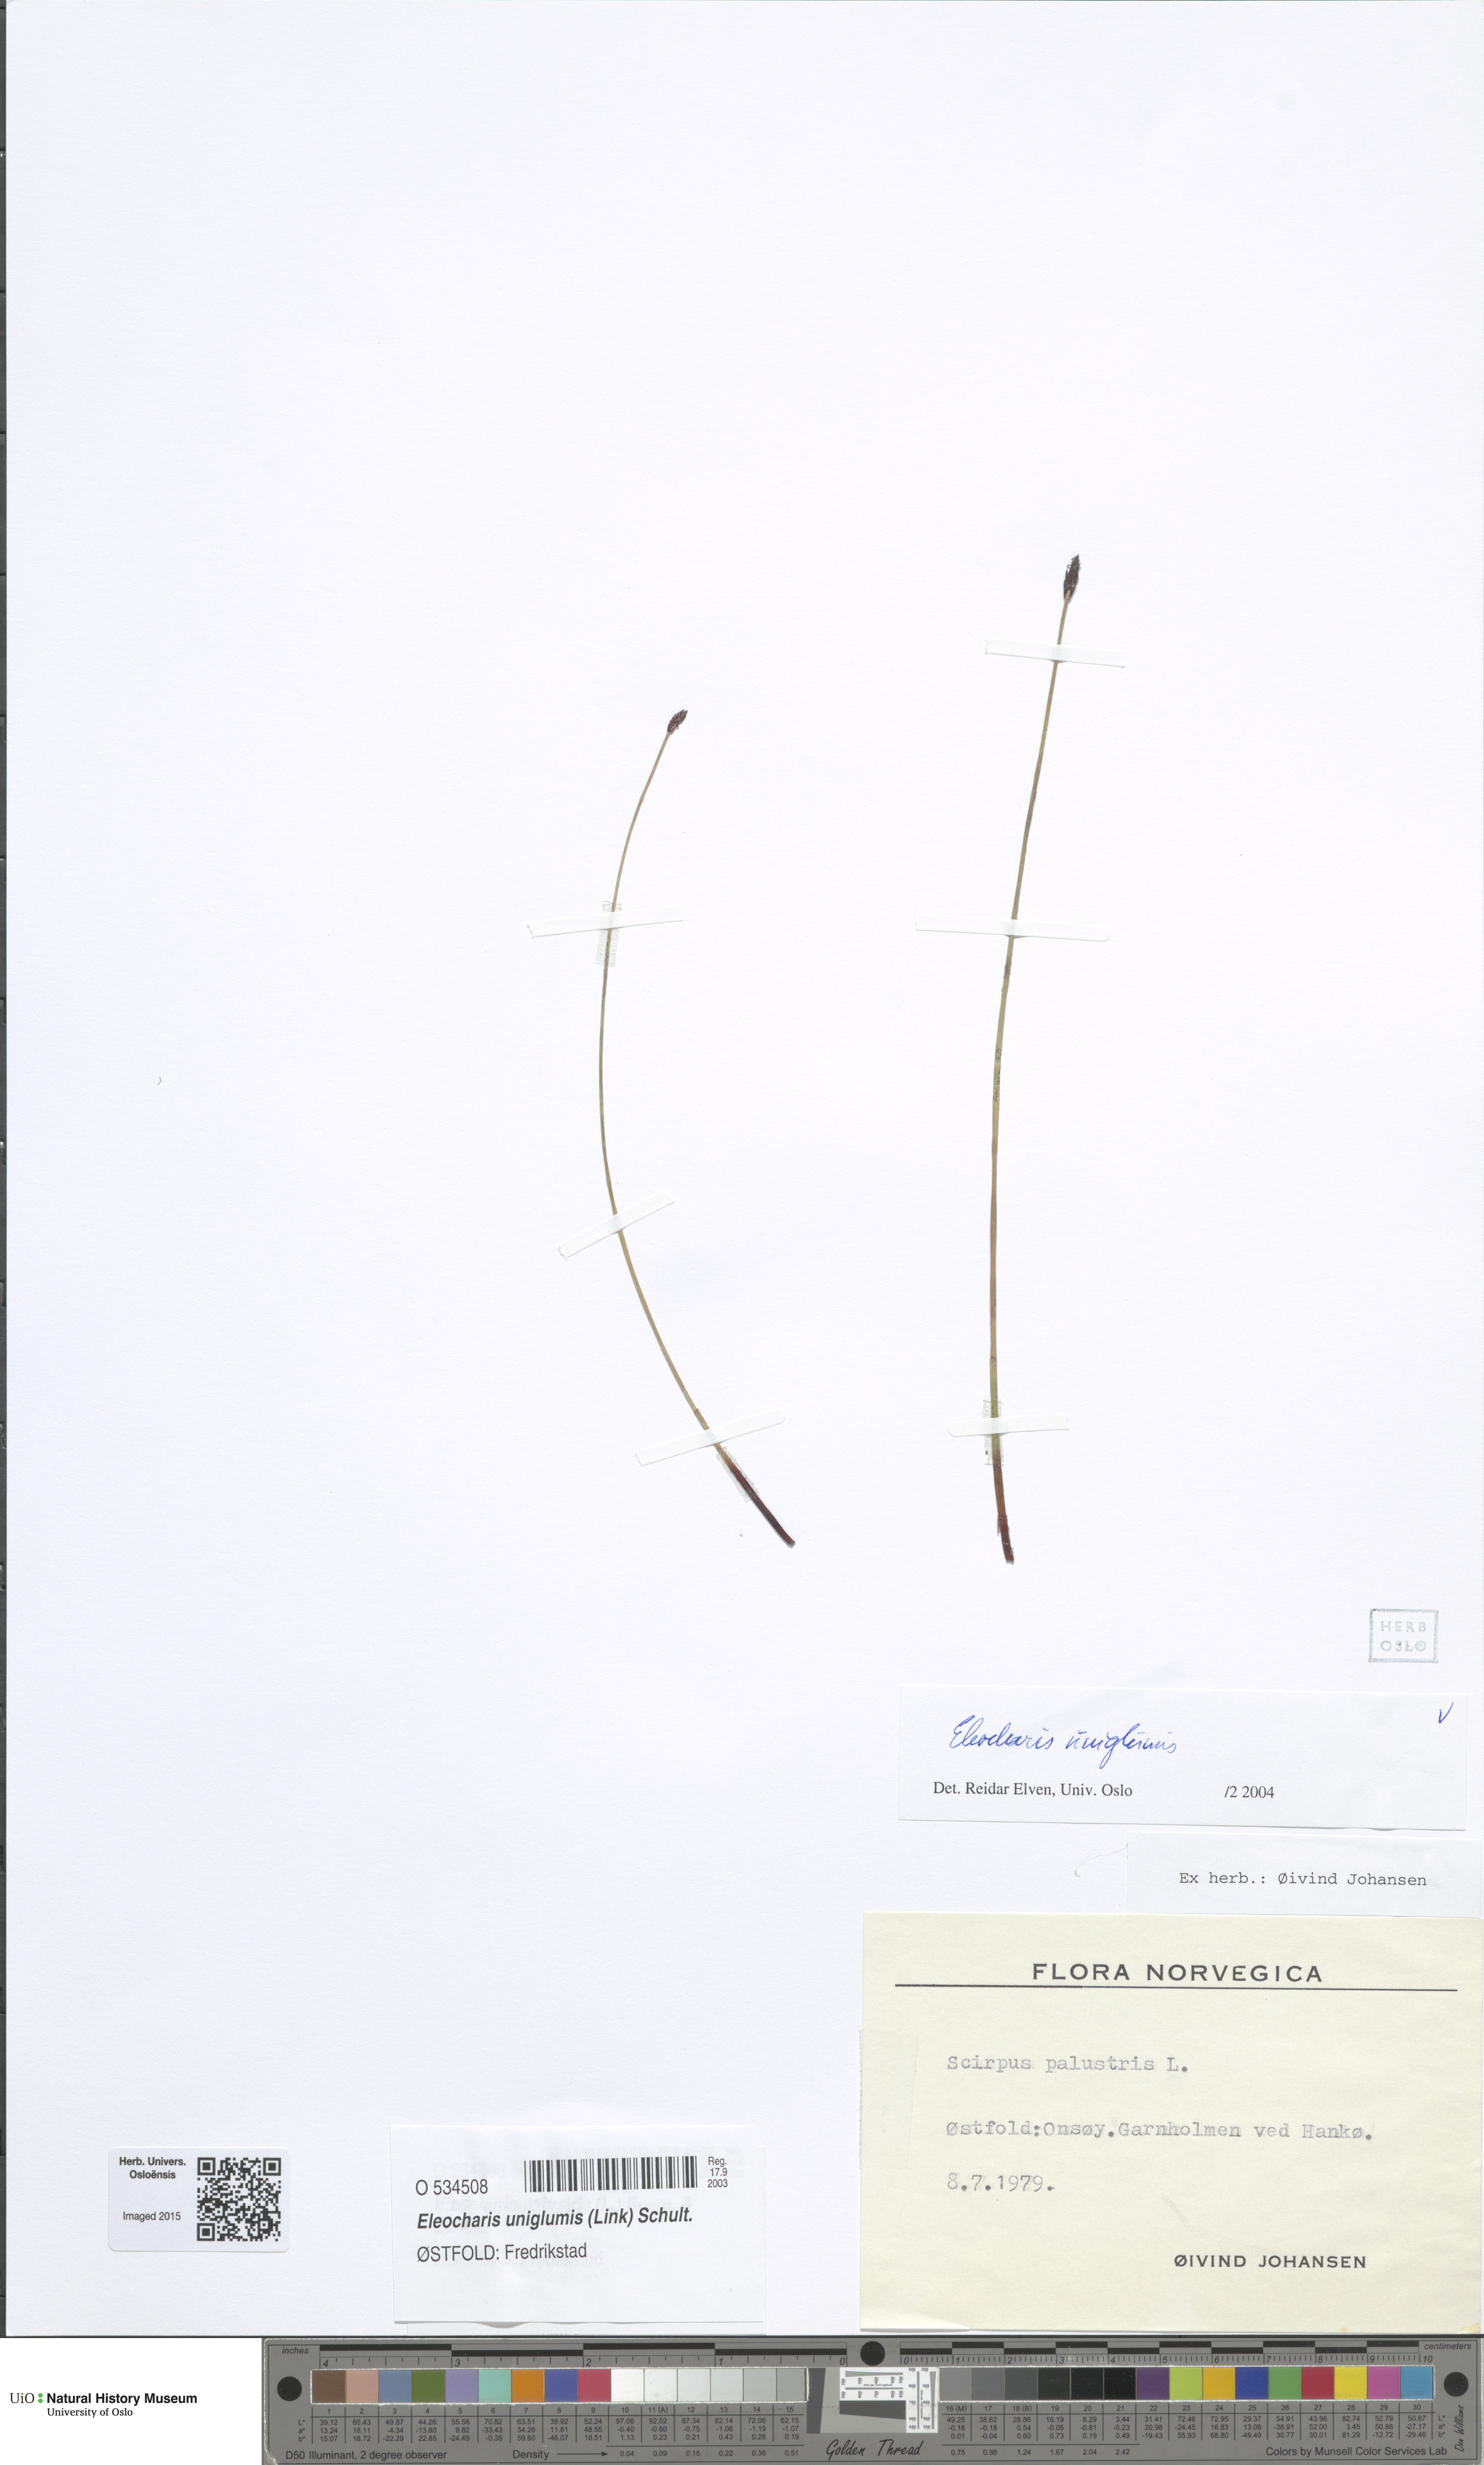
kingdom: Plantae
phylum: Tracheophyta
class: Liliopsida
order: Poales
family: Cyperaceae
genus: Eleocharis
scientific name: Eleocharis uniglumis
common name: Slender spike-rush
